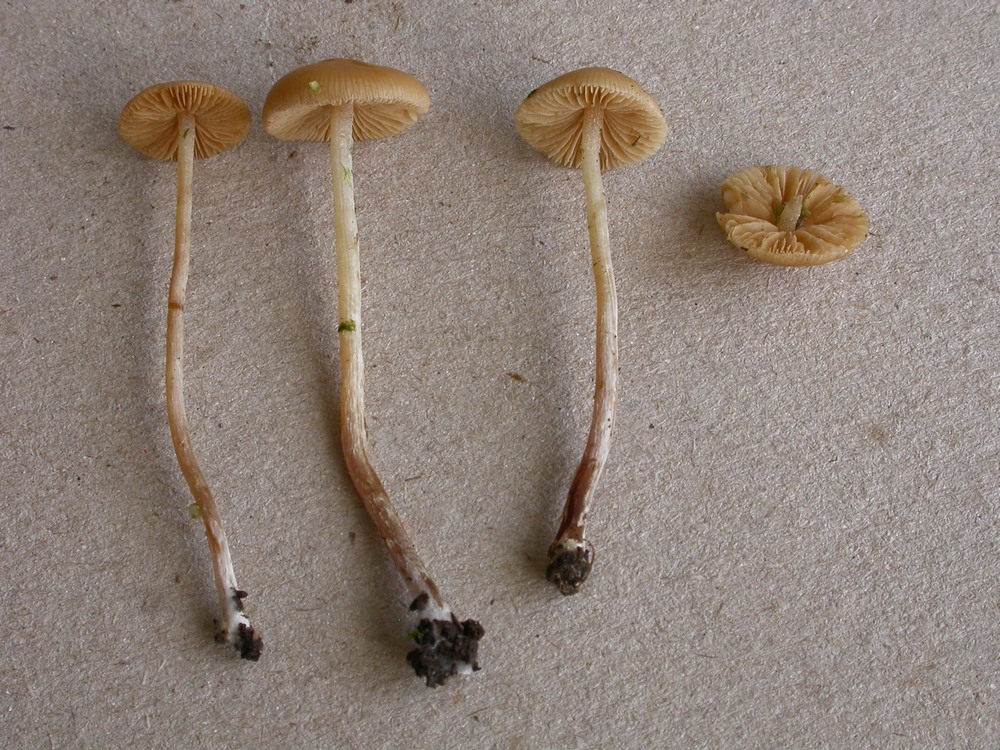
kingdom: Fungi
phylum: Basidiomycota
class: Agaricomycetes
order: Agaricales
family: Bolbitiaceae
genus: Conocybe
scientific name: Conocybe velata
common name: tandet dansehat
